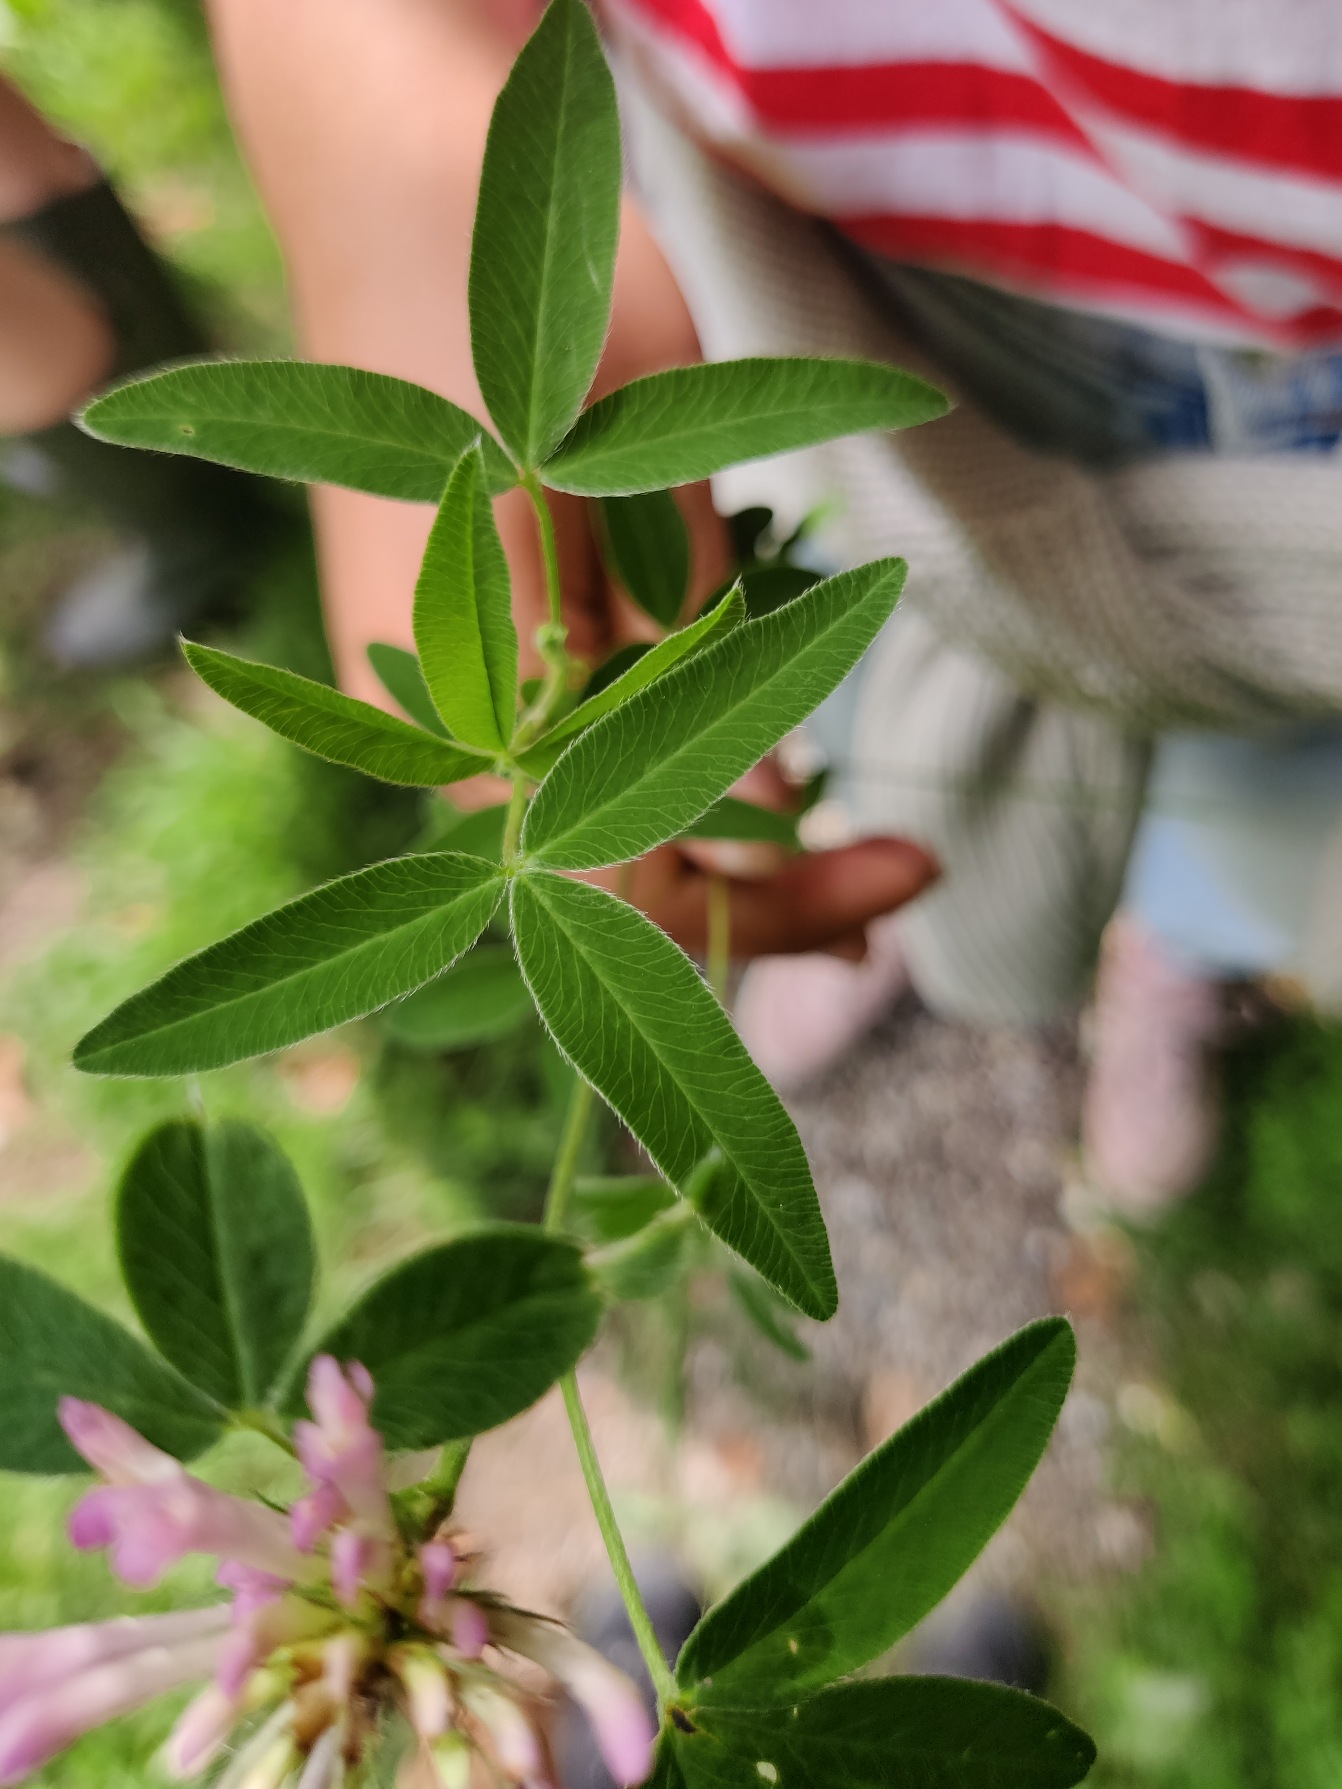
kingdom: Plantae
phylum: Tracheophyta
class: Magnoliopsida
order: Fabales
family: Fabaceae
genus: Trifolium
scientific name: Trifolium medium
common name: Bugtet kløver
